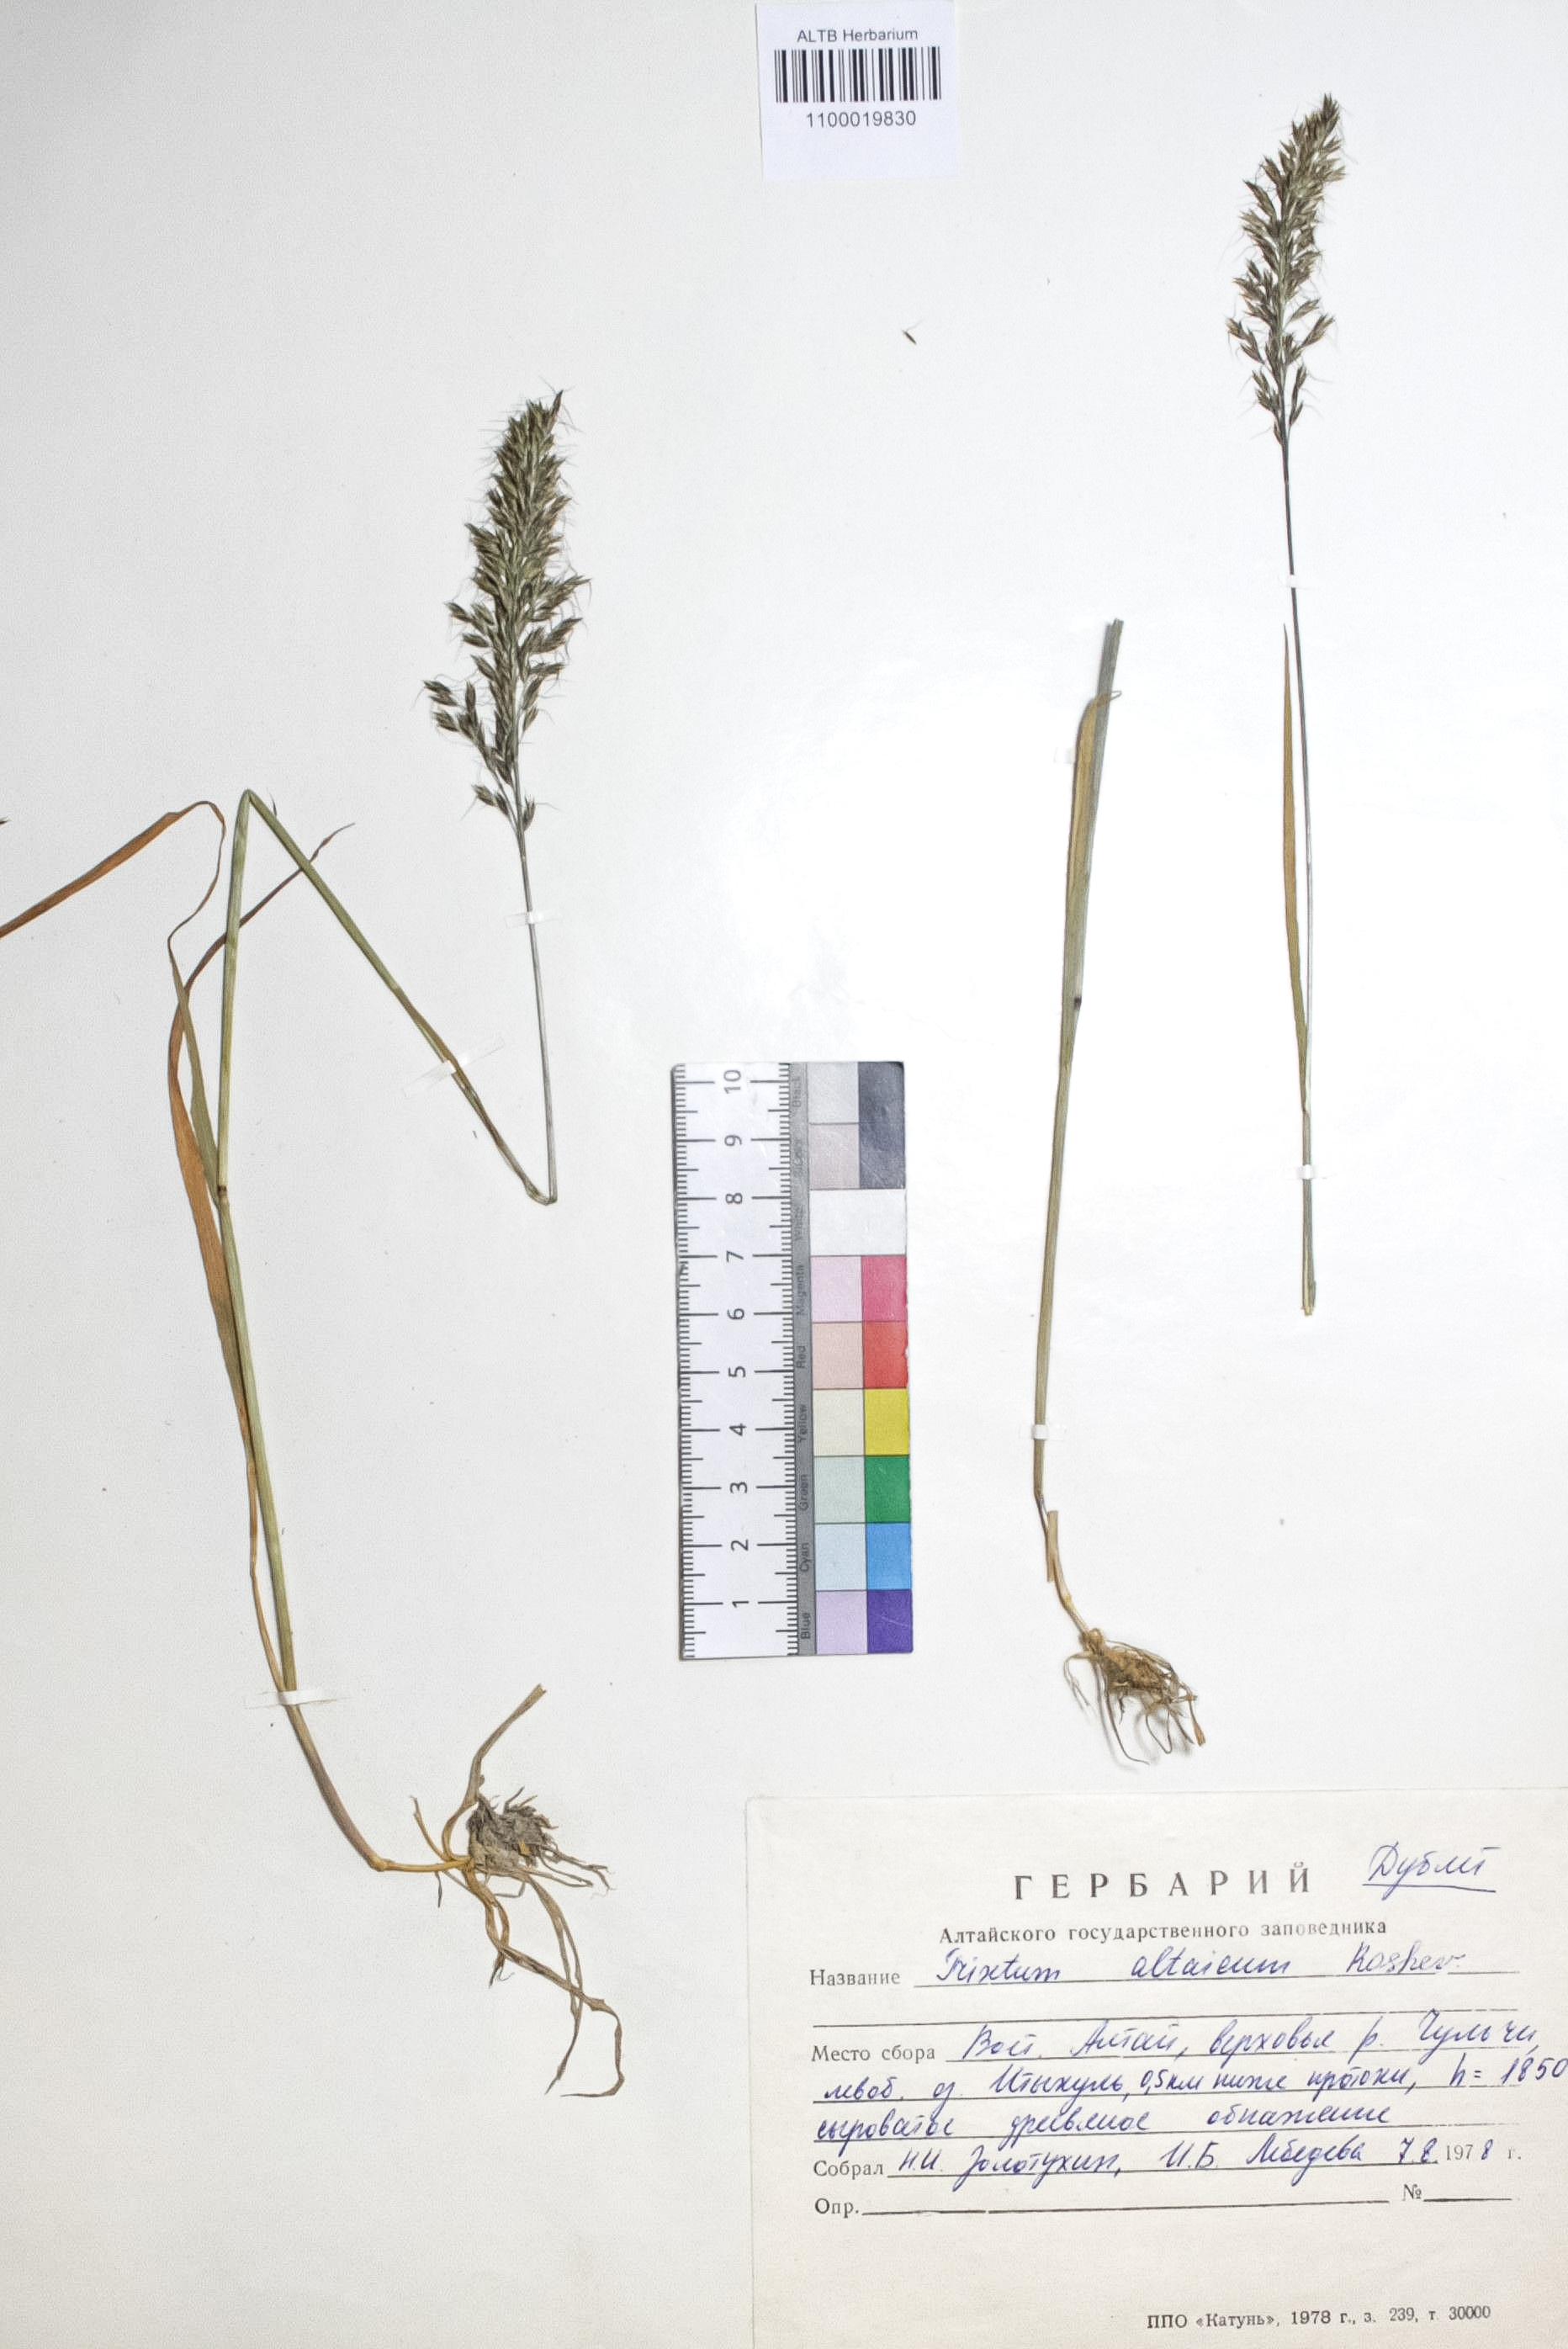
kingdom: Plantae
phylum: Tracheophyta
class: Liliopsida
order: Poales
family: Poaceae
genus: Trisetum
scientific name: Trisetum altaicum
